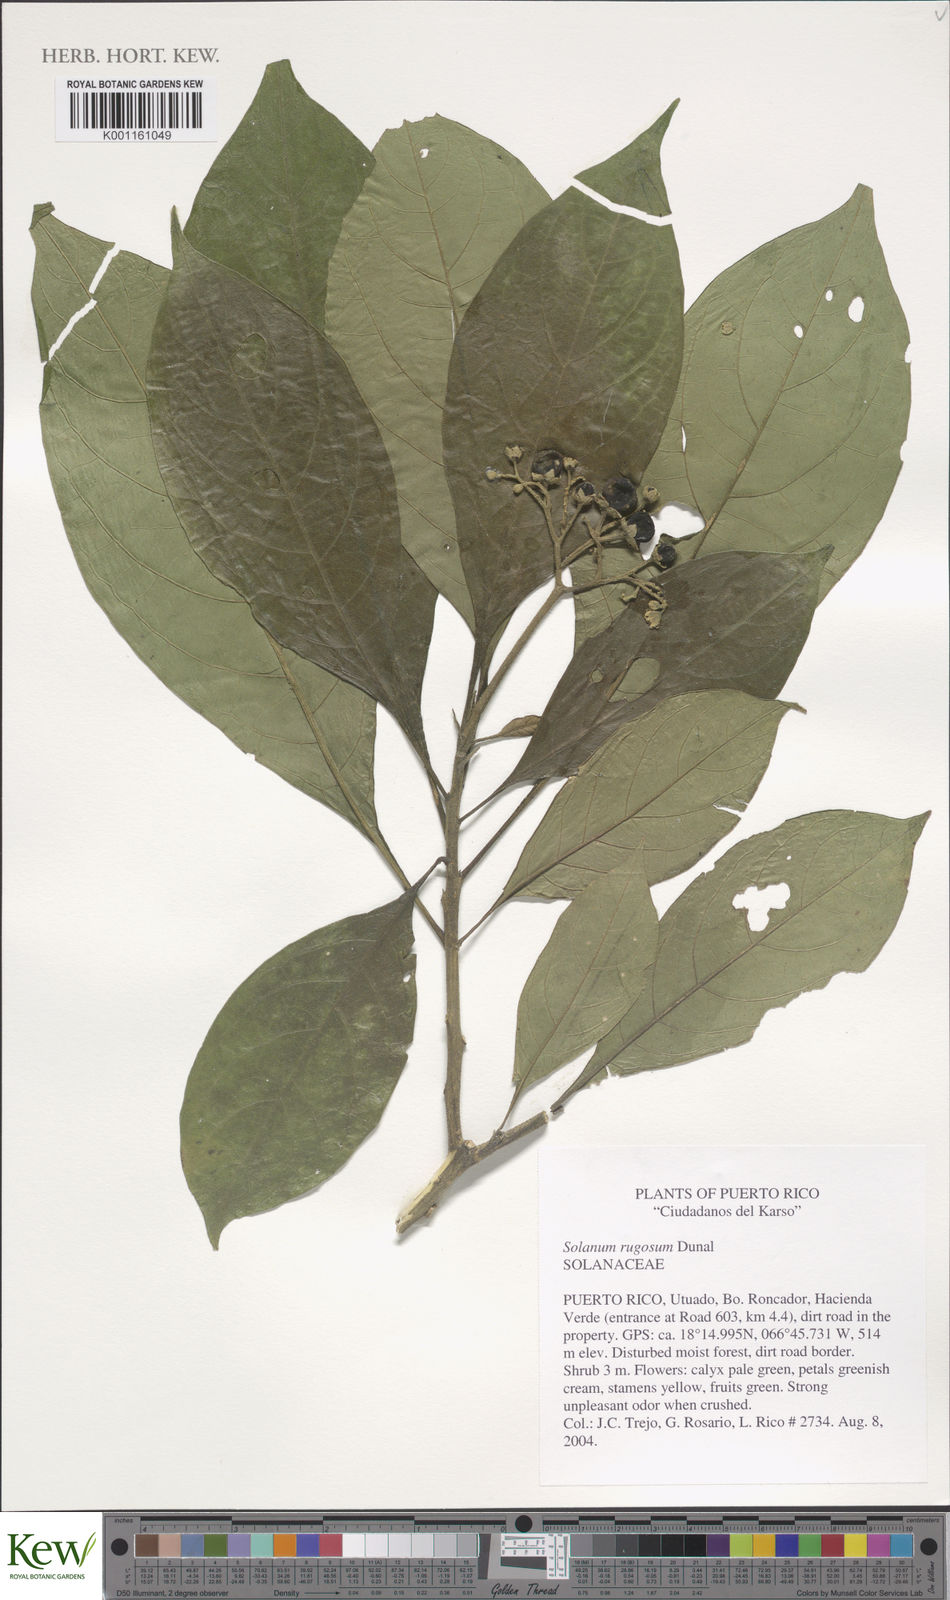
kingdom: Plantae
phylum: Tracheophyta
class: Magnoliopsida
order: Solanales
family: Solanaceae
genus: Solanum
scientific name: Solanum rugosum
